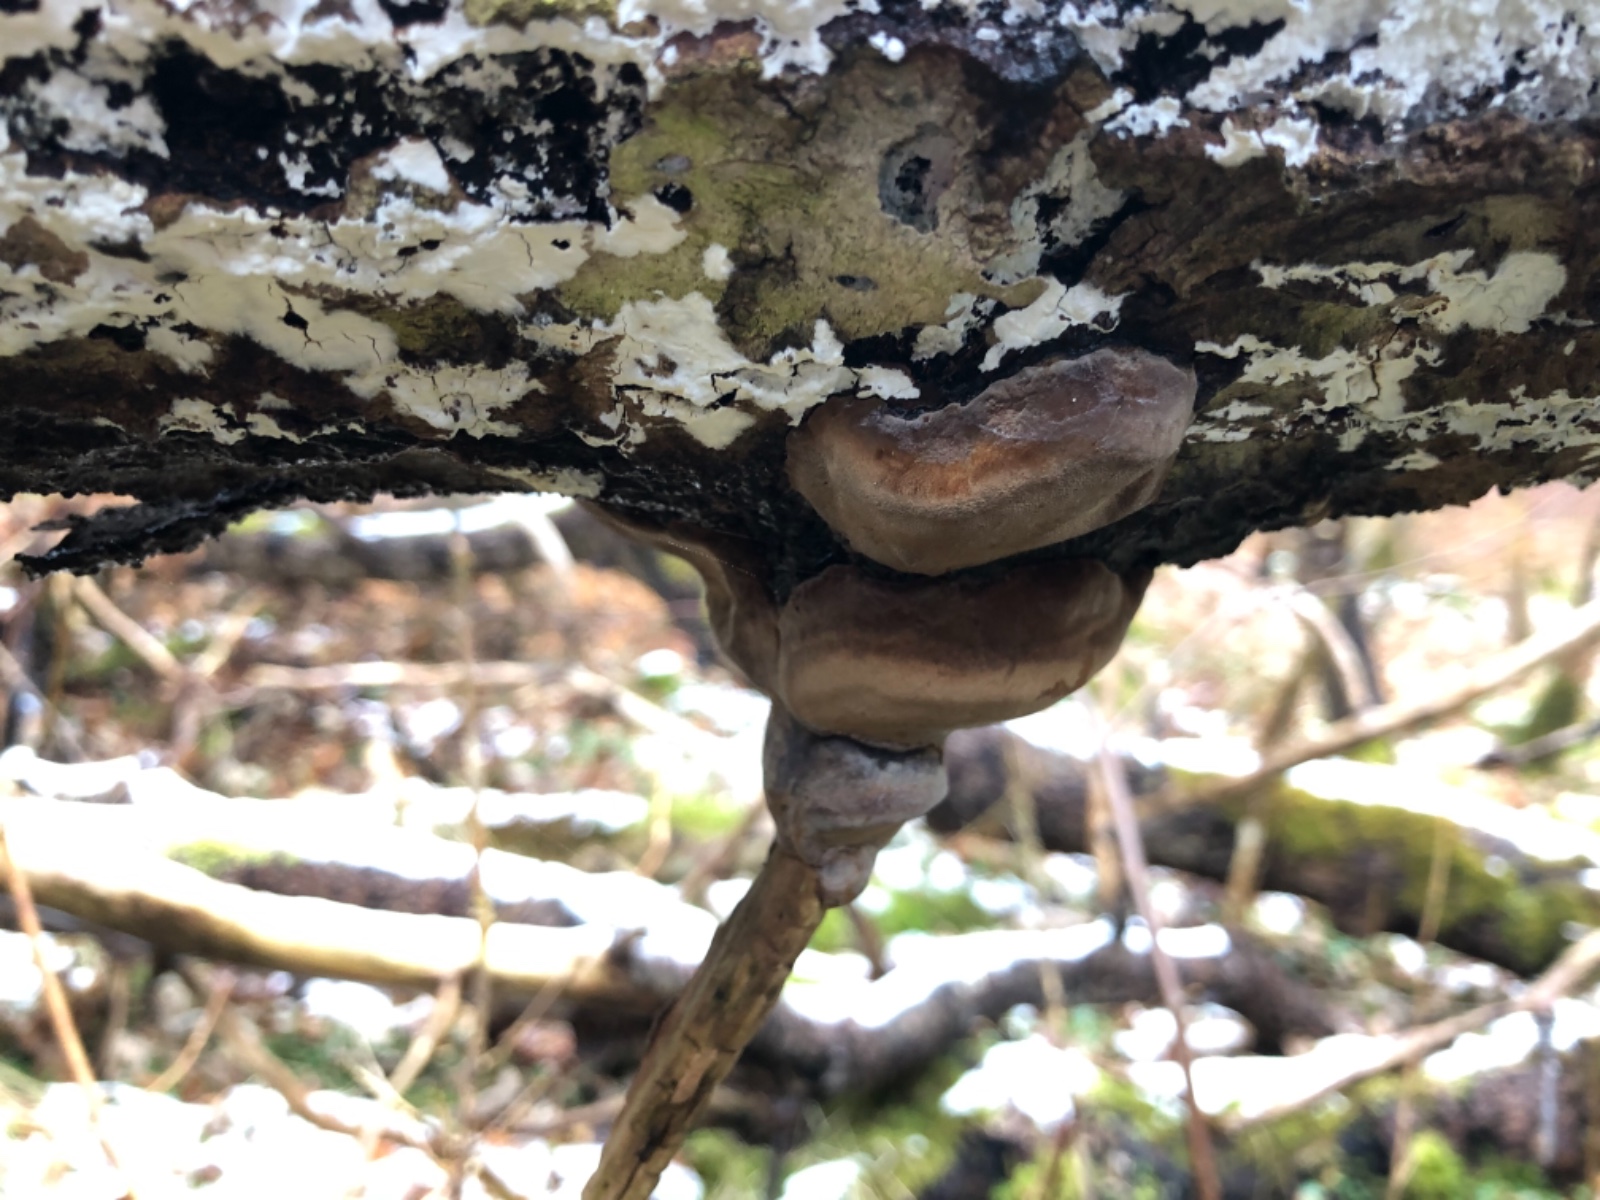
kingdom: Fungi
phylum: Basidiomycota
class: Agaricomycetes
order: Hymenochaetales
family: Hymenochaetaceae
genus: Phellinus
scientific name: Phellinus tremulae
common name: aspe-ildporesvamp
